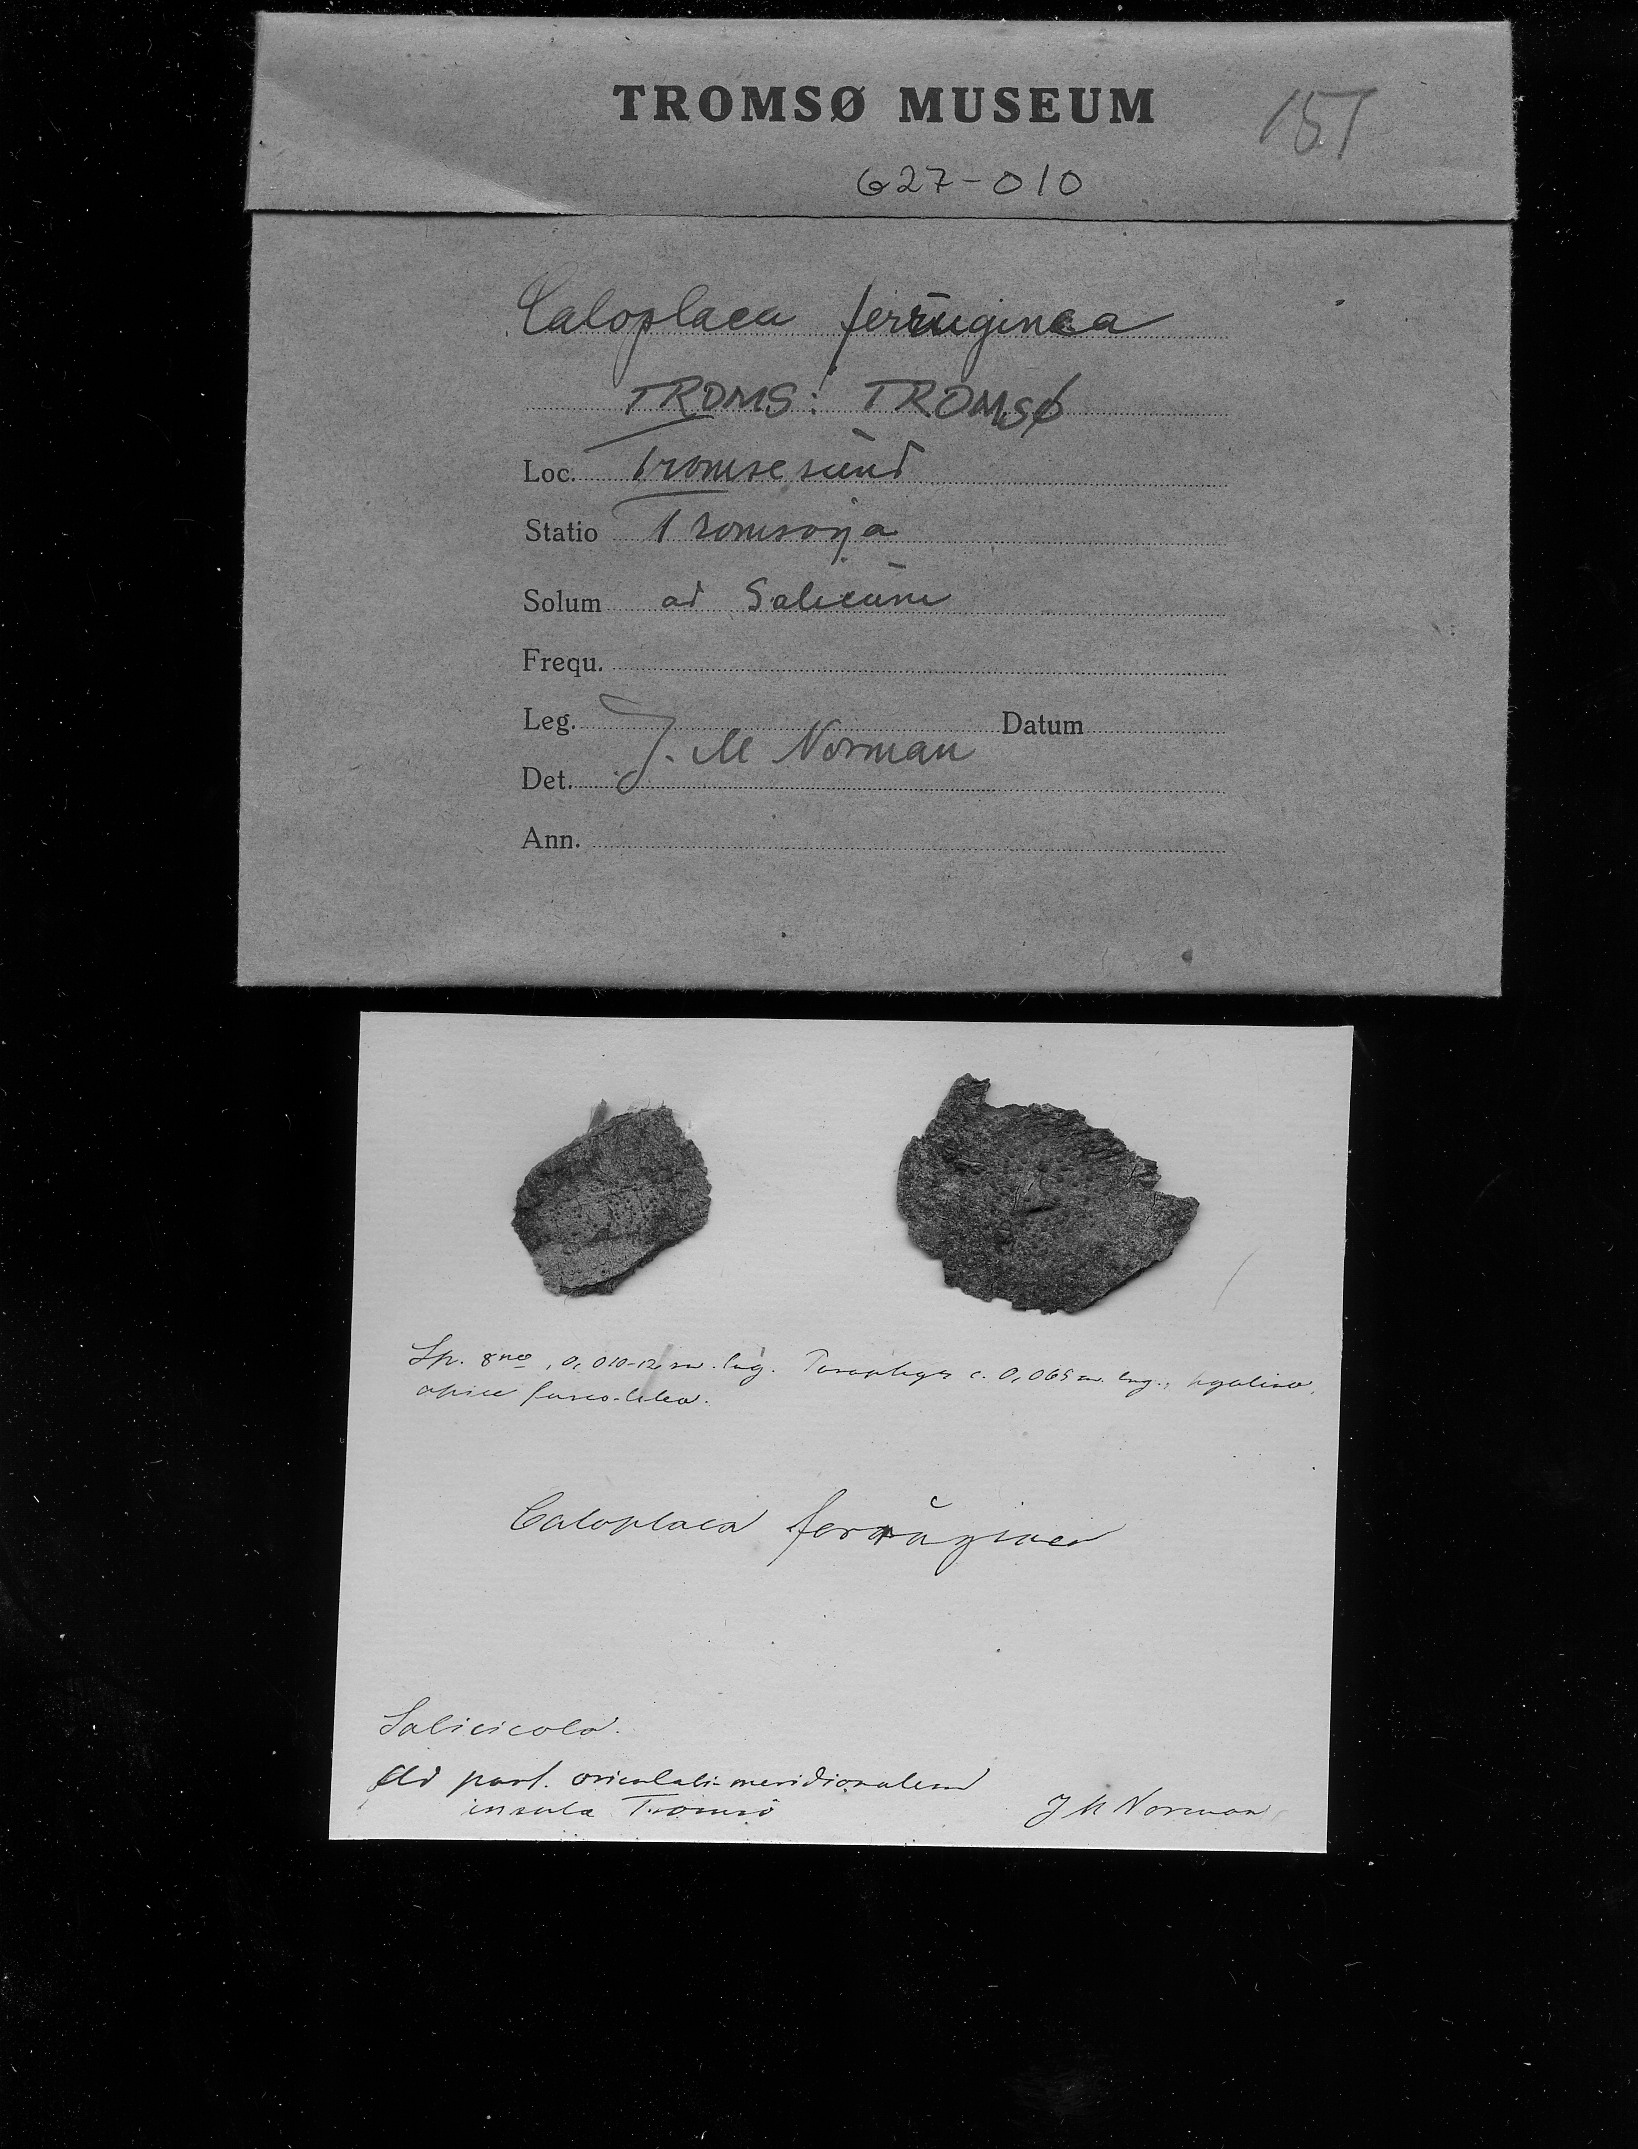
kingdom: Fungi
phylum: Ascomycota
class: Lecanoromycetes
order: Teloschistales
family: Teloschistaceae
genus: Caloplaca
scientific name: Caloplaca caesiorufella
